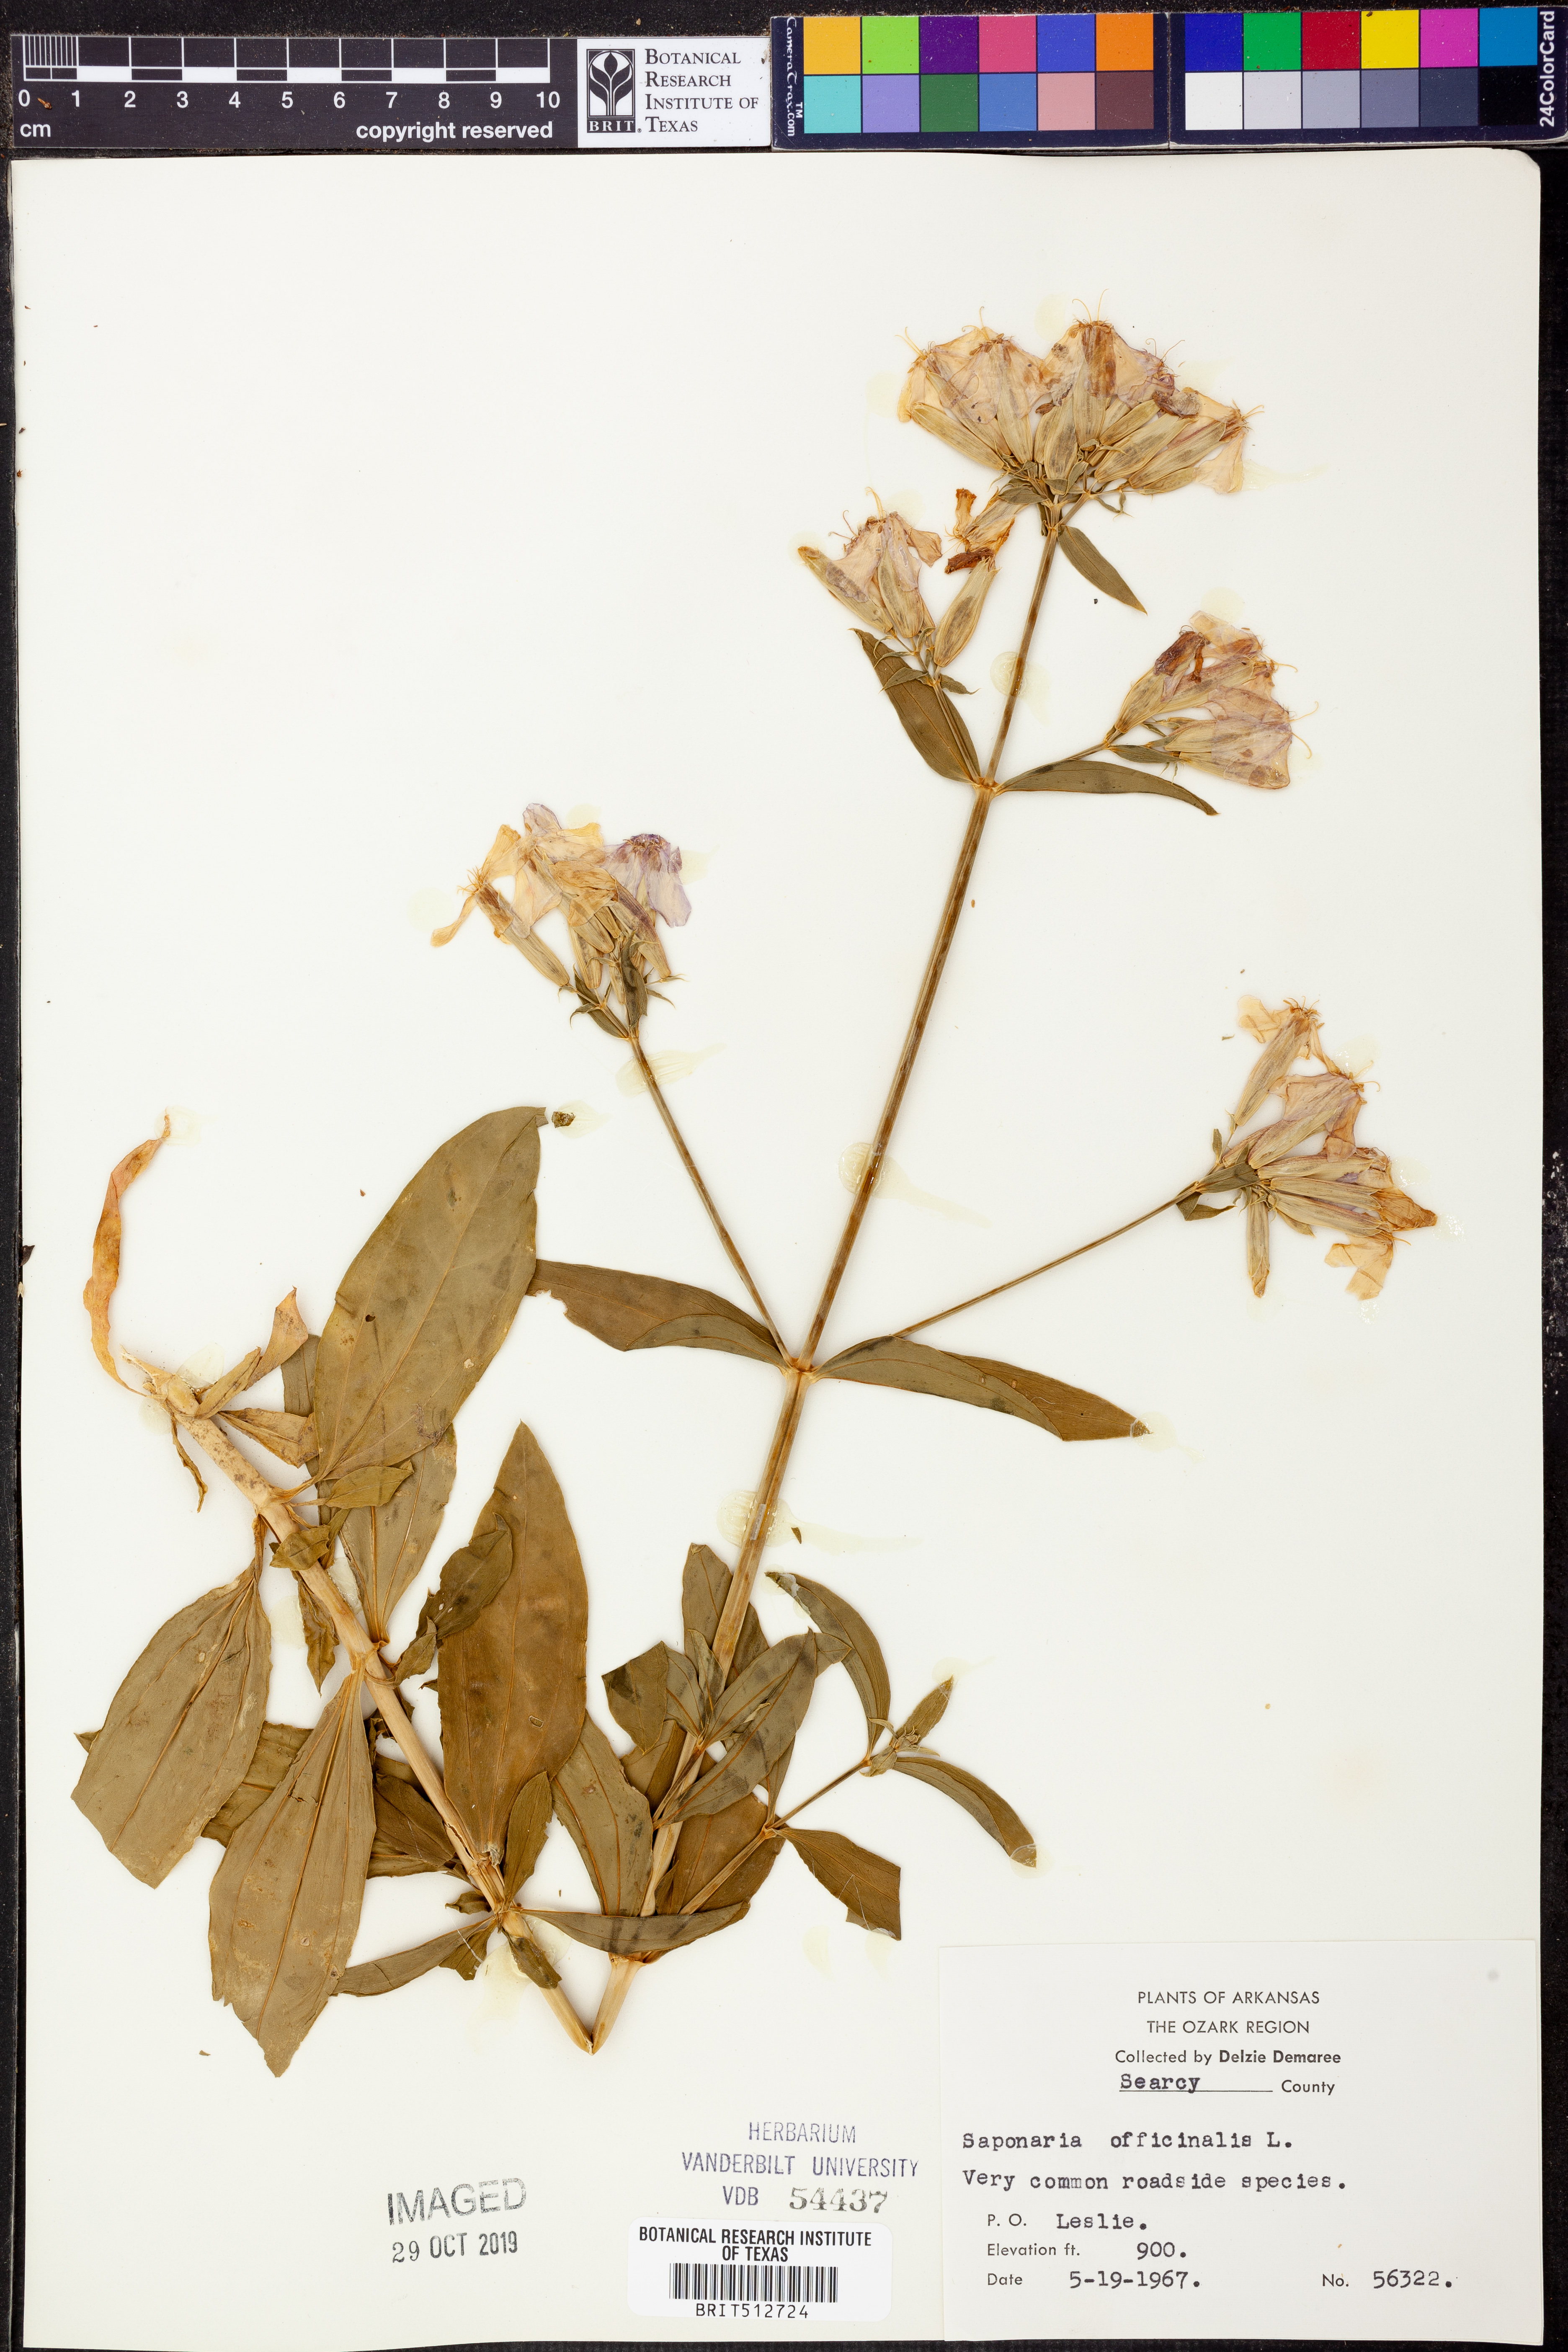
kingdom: Plantae
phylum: Tracheophyta
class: Magnoliopsida
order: Caryophyllales
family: Caryophyllaceae
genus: Saponaria
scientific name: Saponaria officinalis
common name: Soapwort
